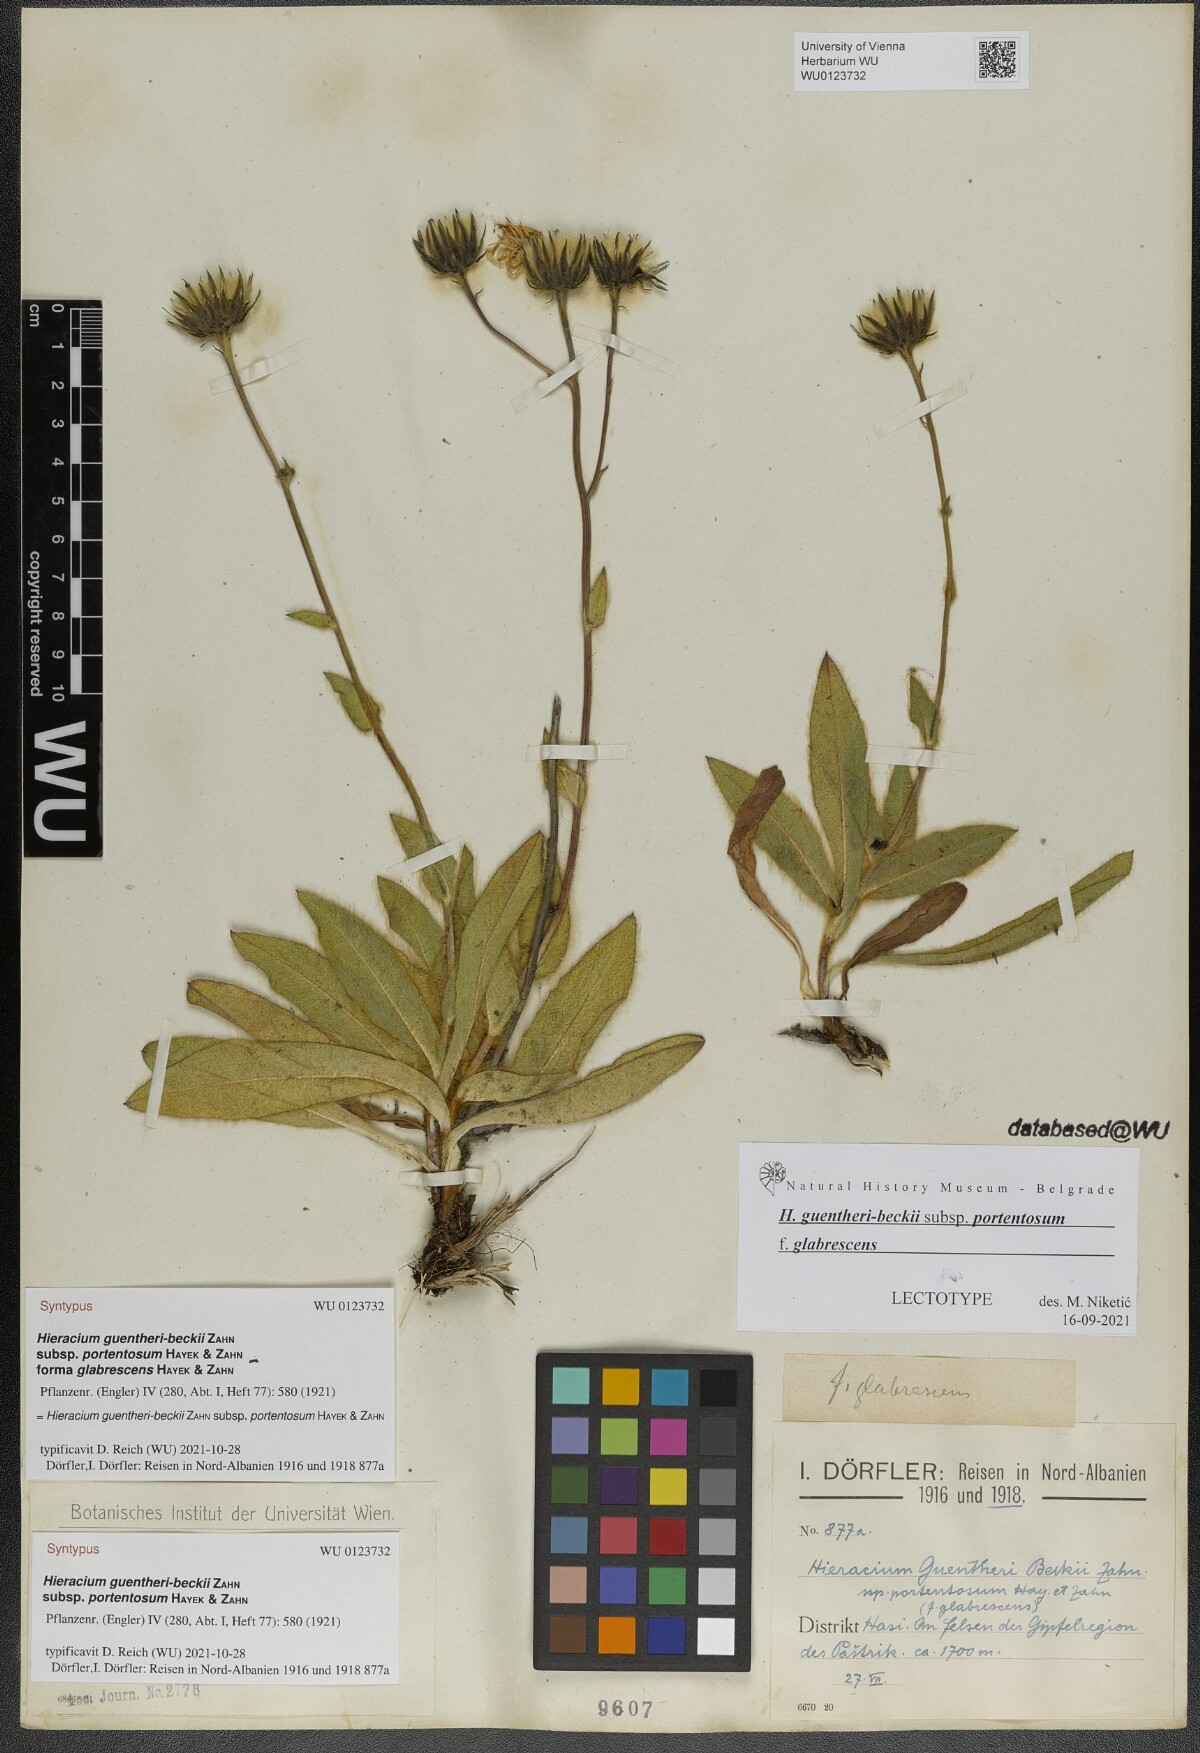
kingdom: Plantae
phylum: Tracheophyta
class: Magnoliopsida
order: Asterales
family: Asteraceae
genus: Hieracium
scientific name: Hieracium stirovacense
